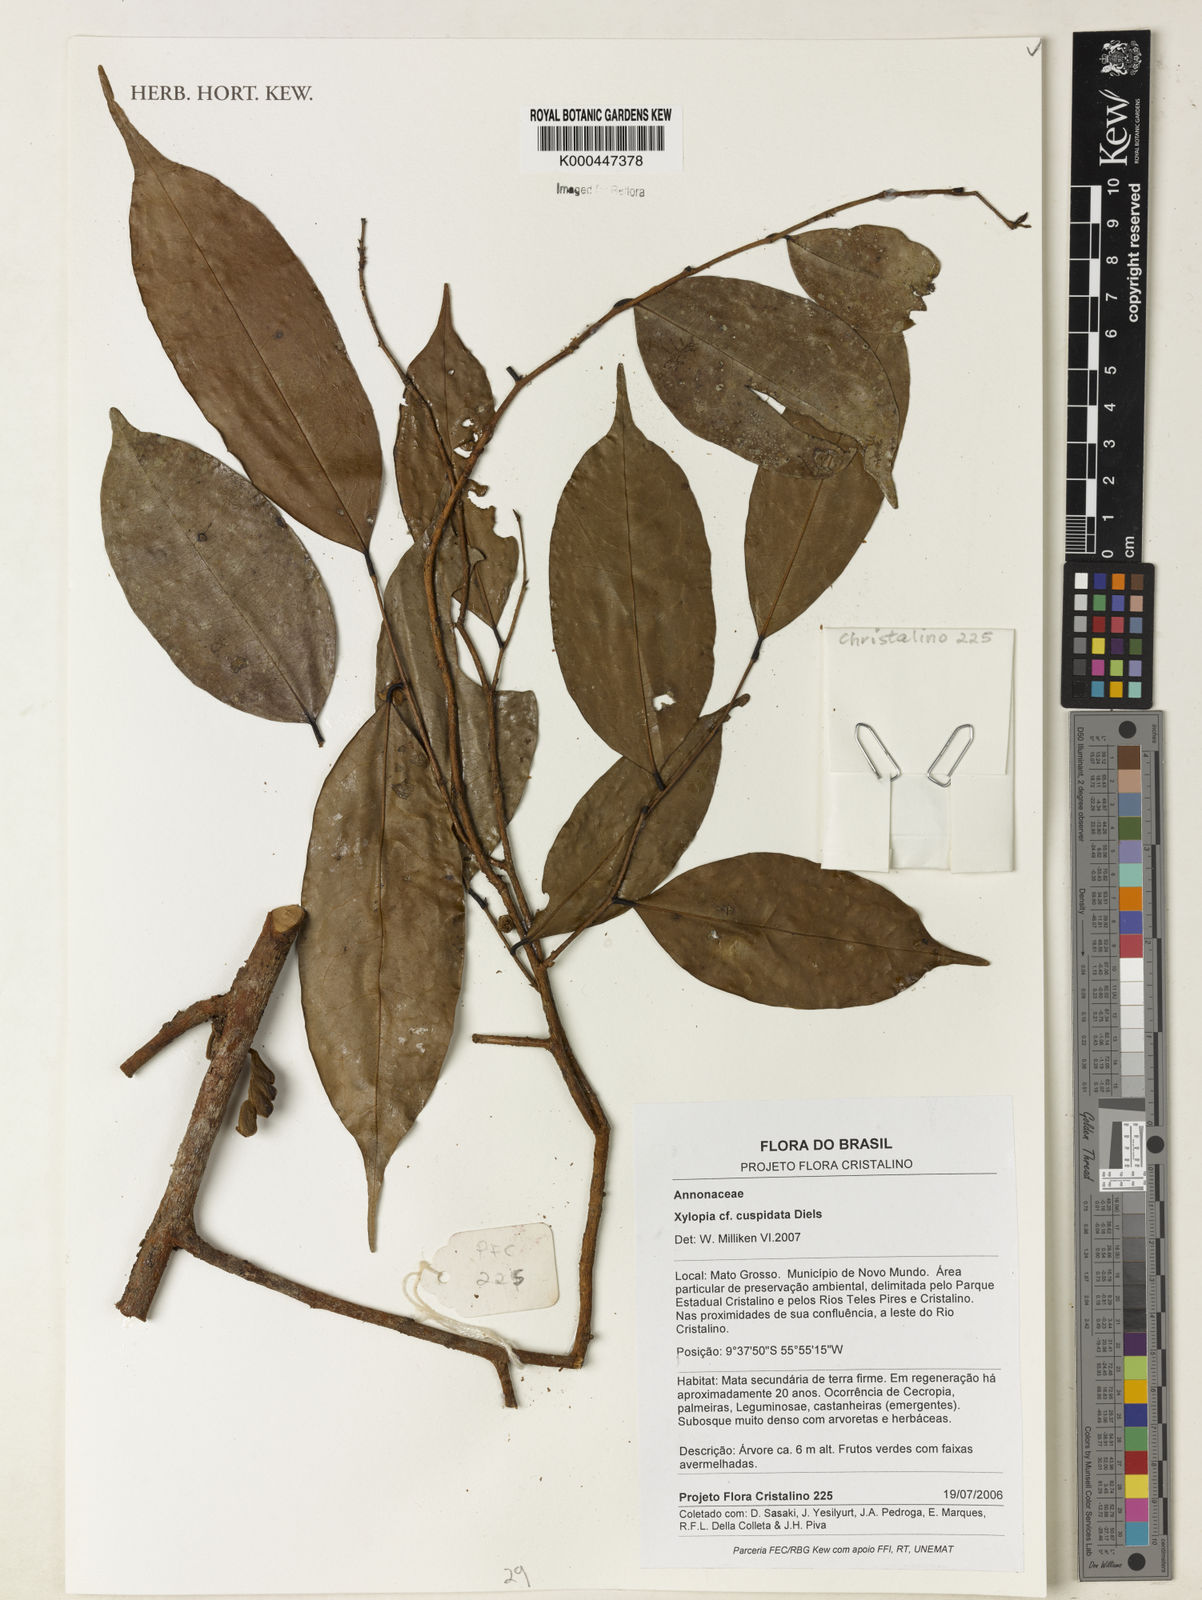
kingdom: Plantae
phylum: Tracheophyta
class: Magnoliopsida
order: Magnoliales
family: Annonaceae
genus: Xylopia
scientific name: Xylopia cuspidata
